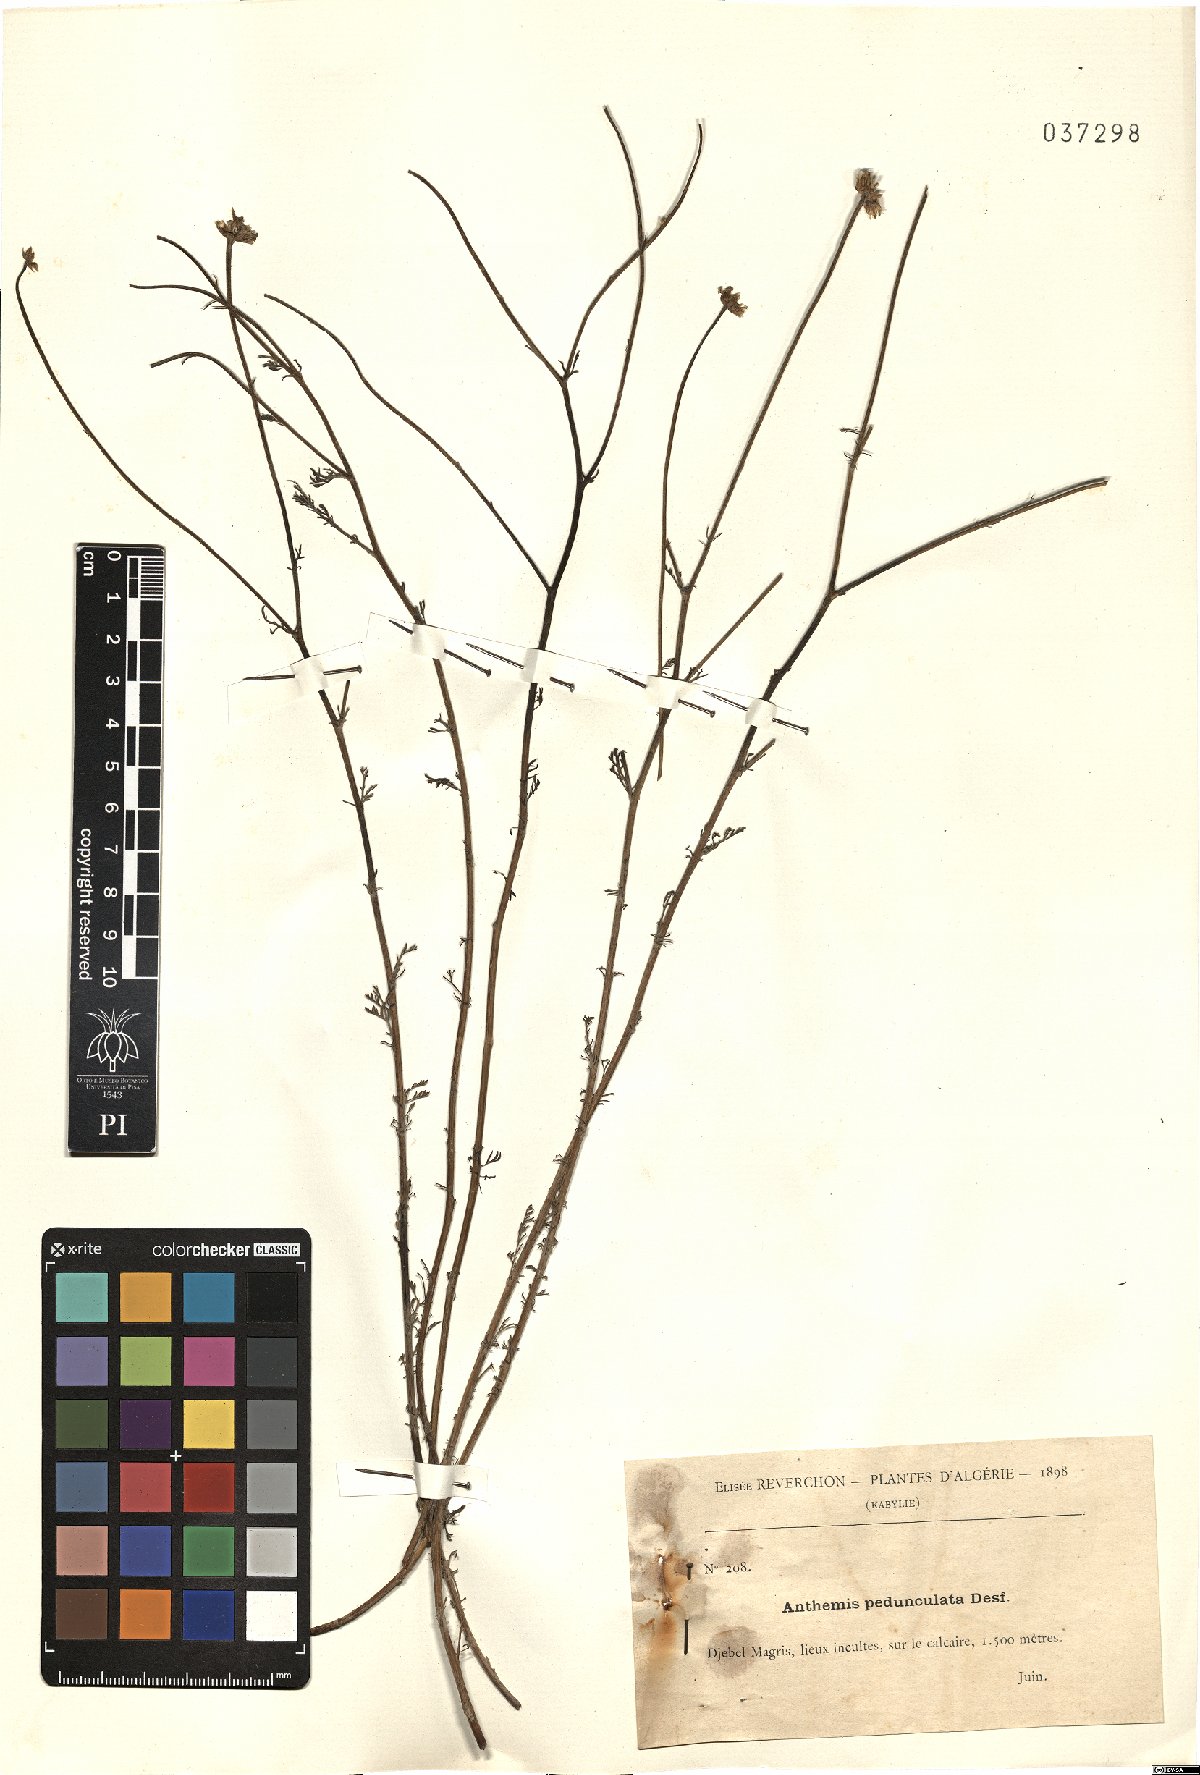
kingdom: Plantae
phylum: Tracheophyta
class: Magnoliopsida
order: Asterales
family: Asteraceae
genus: Anthemis
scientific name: Anthemis pedunculata
